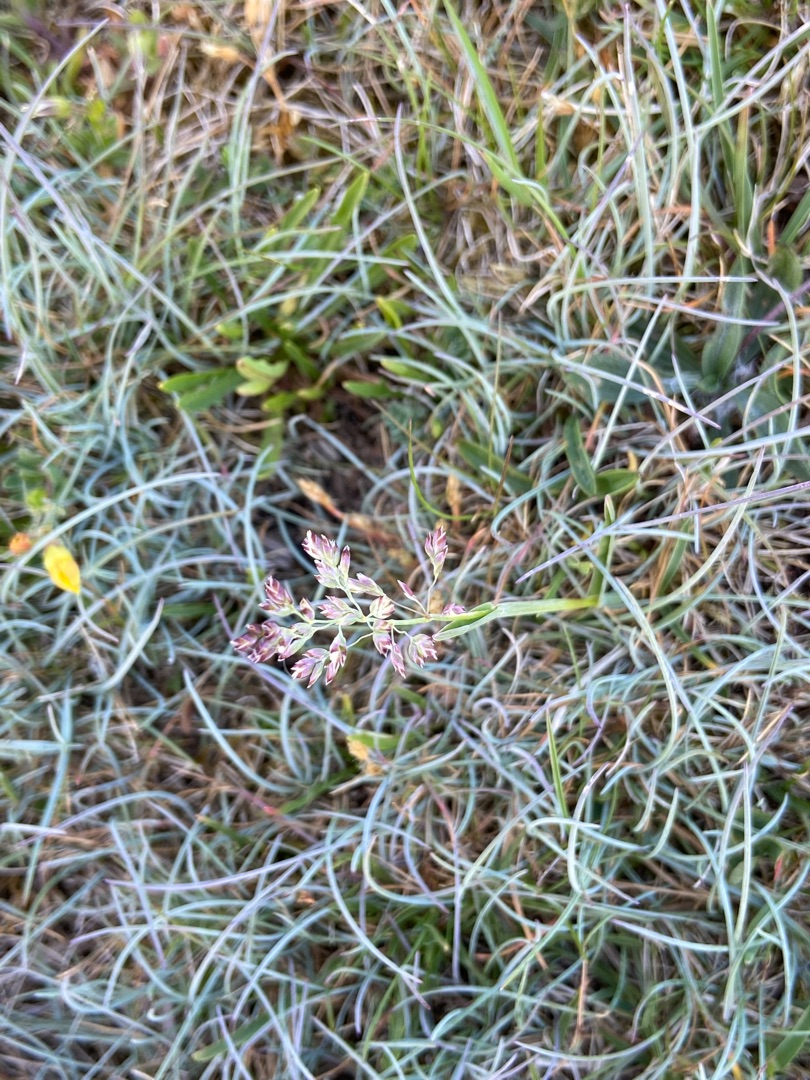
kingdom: Plantae
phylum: Tracheophyta
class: Liliopsida
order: Poales
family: Poaceae
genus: Poa
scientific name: Poa pratensis
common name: Eng-rapgræs
